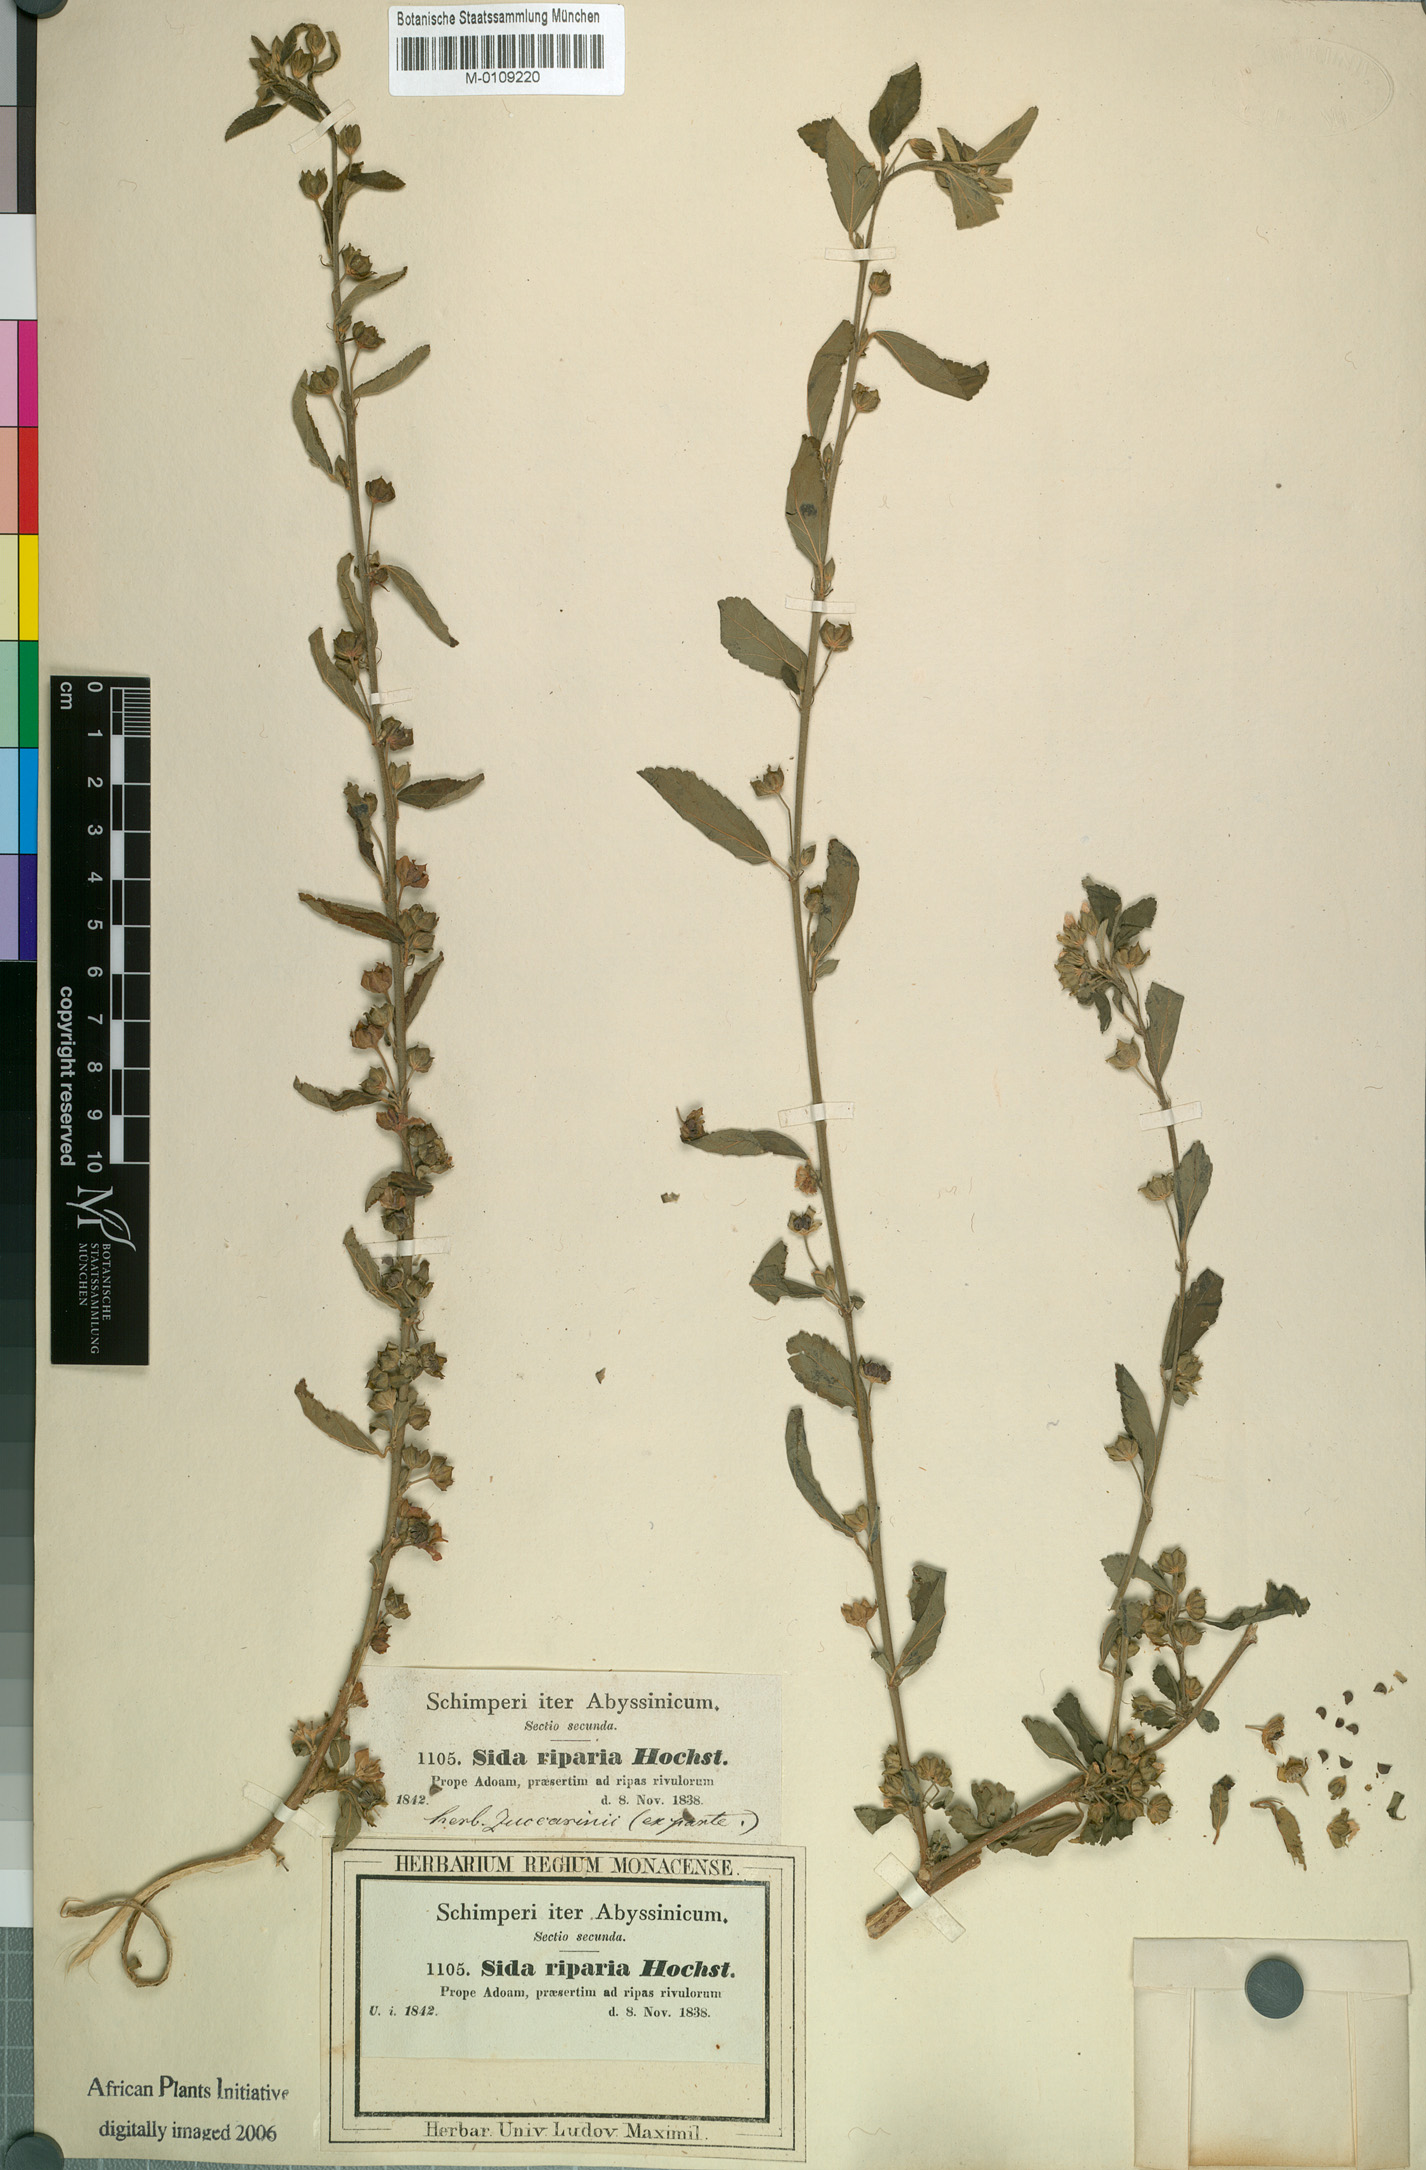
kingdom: Plantae
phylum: Tracheophyta
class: Magnoliopsida
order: Malvales
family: Malvaceae
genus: Sida
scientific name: Sida rhombifolia
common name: Queensland-hemp
